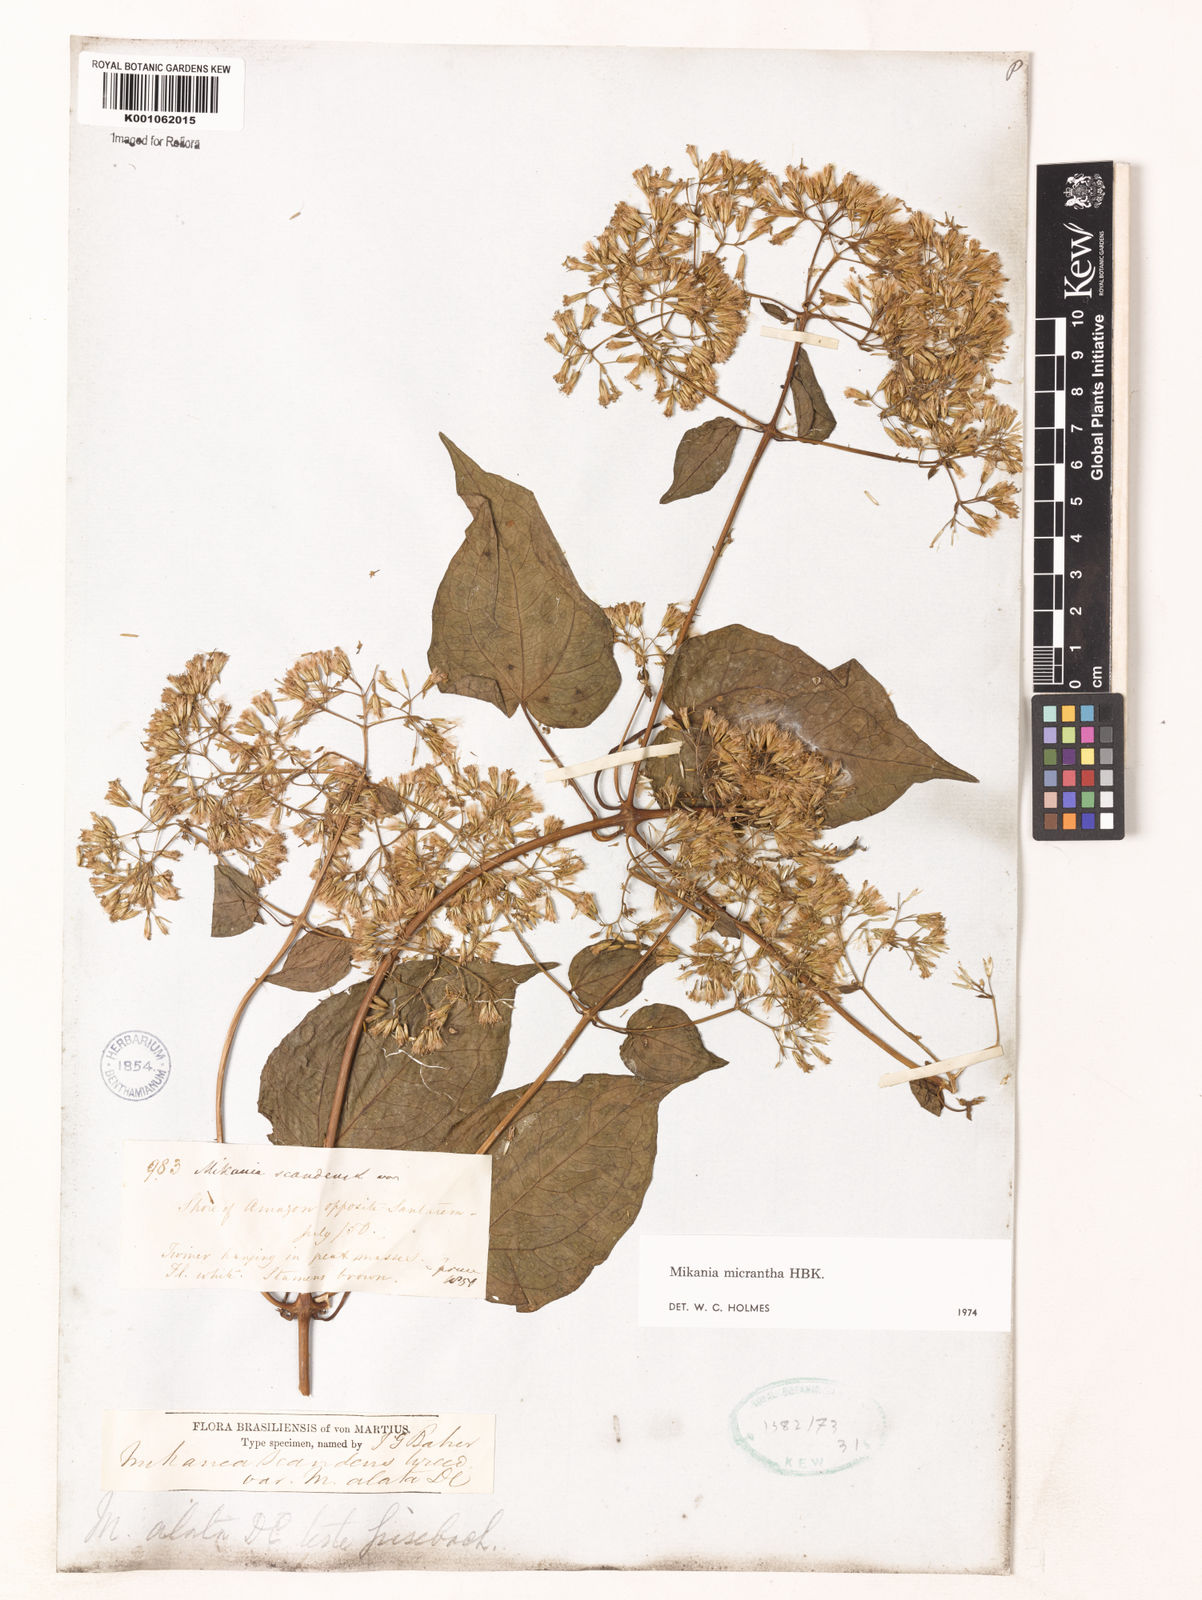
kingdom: Plantae
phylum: Tracheophyta
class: Magnoliopsida
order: Asterales
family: Asteraceae
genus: Mikania
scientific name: Mikania micrantha
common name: Mile-a-minute
